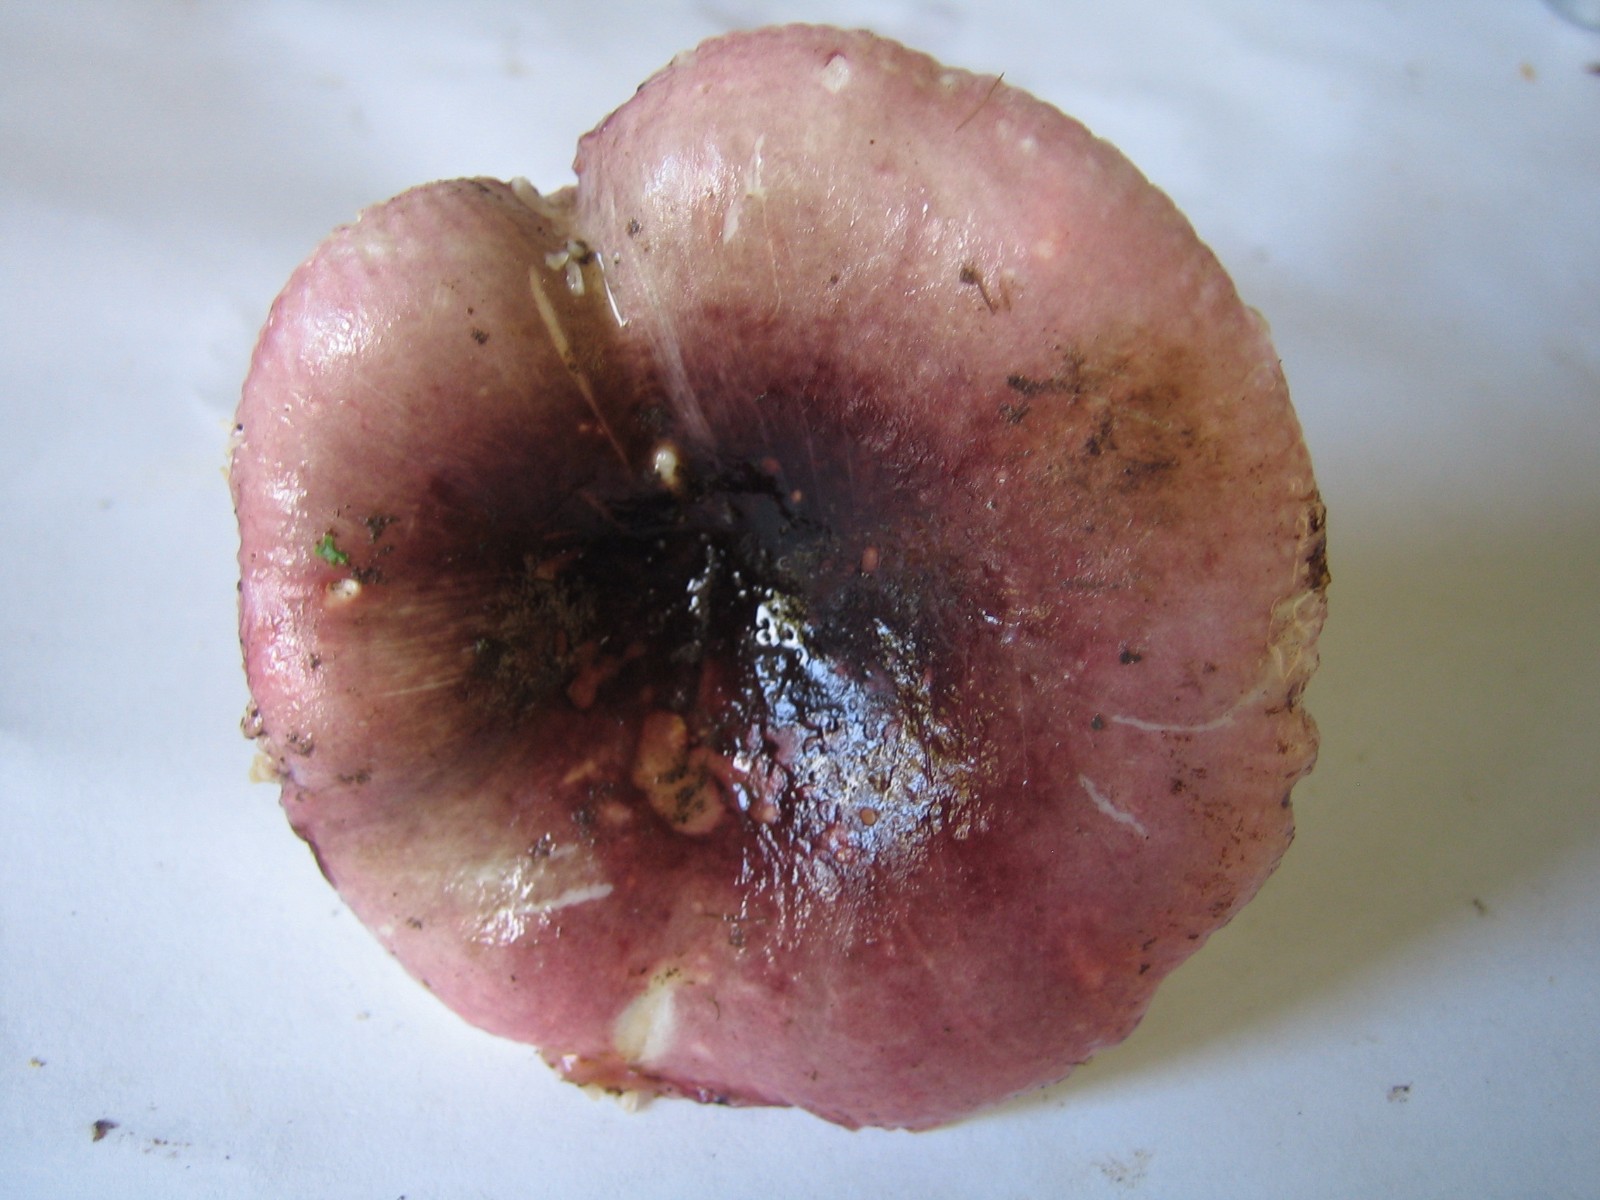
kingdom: Fungi
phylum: Basidiomycota
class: Agaricomycetes
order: Russulales
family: Russulaceae
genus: Russula
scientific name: Russula fragilis
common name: savbladet skørhat
